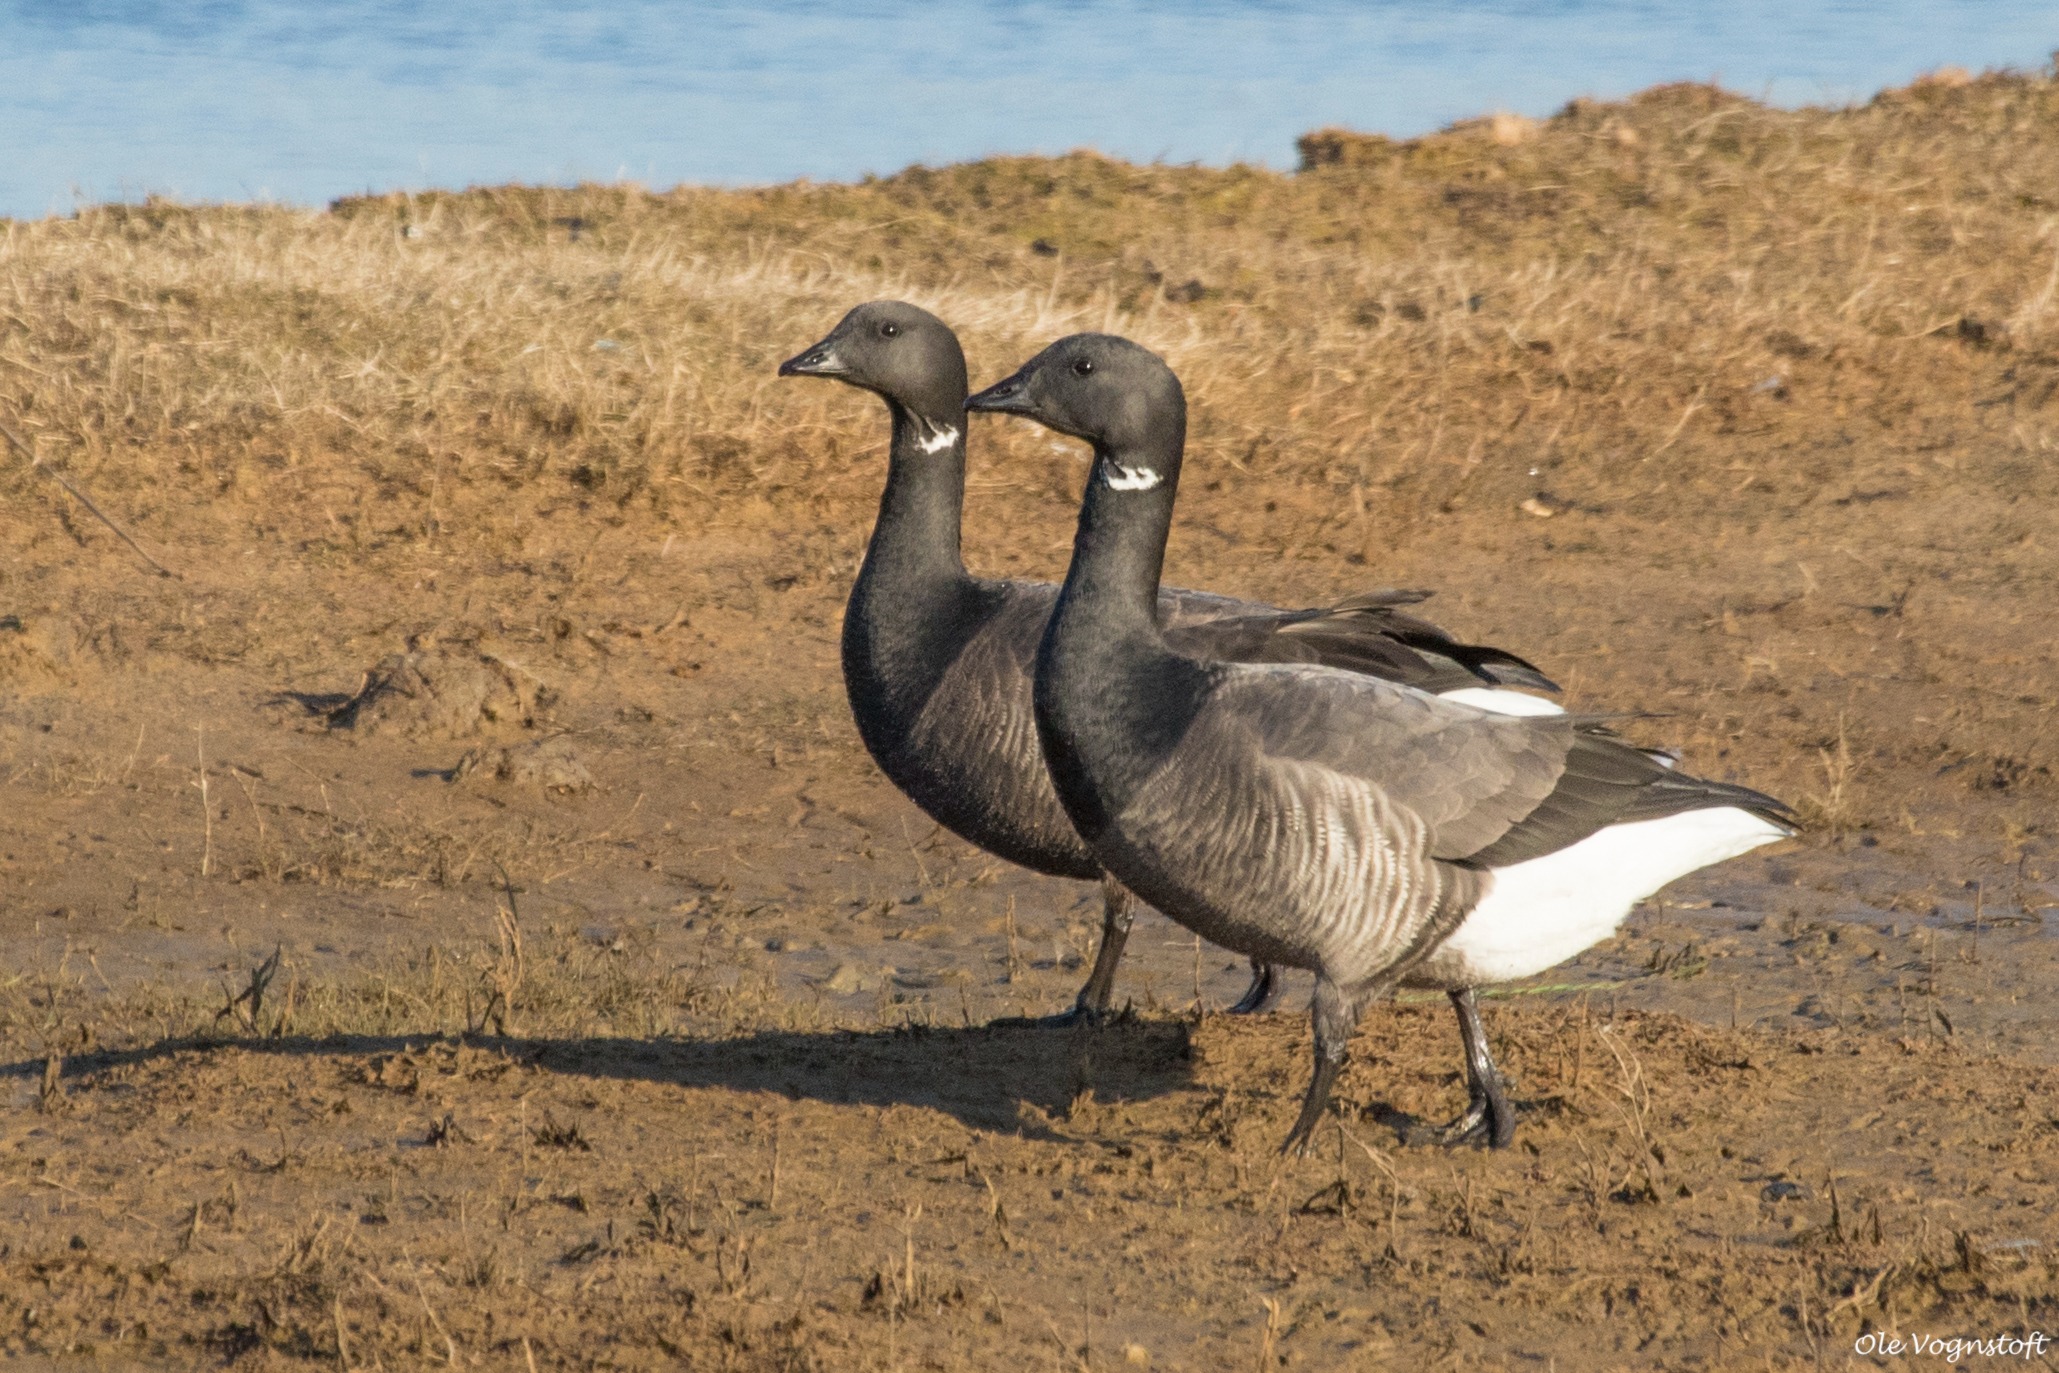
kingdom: Animalia
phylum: Chordata
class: Aves
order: Anseriformes
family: Anatidae
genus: Branta
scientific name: Branta bernicla
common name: Mørkbuget knortegås
